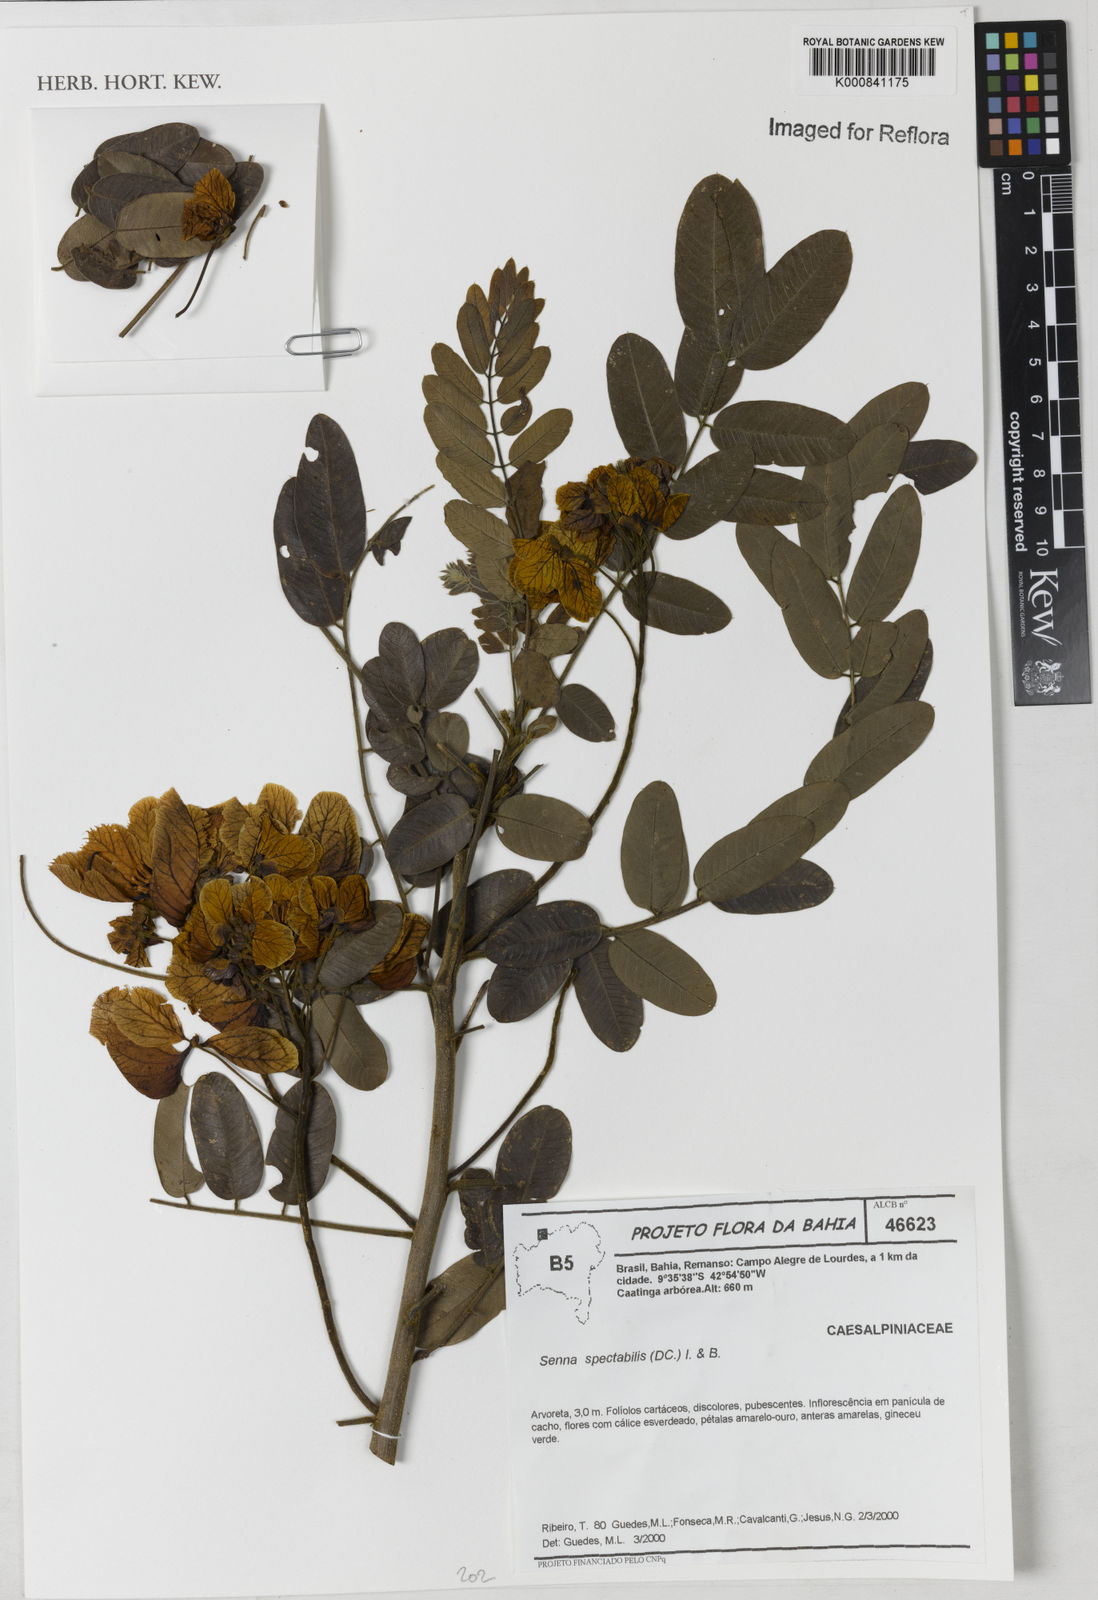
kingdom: Plantae
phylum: Tracheophyta
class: Magnoliopsida
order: Fabales
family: Fabaceae
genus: Senna
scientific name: Senna spectabilis
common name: Casia amarilla
